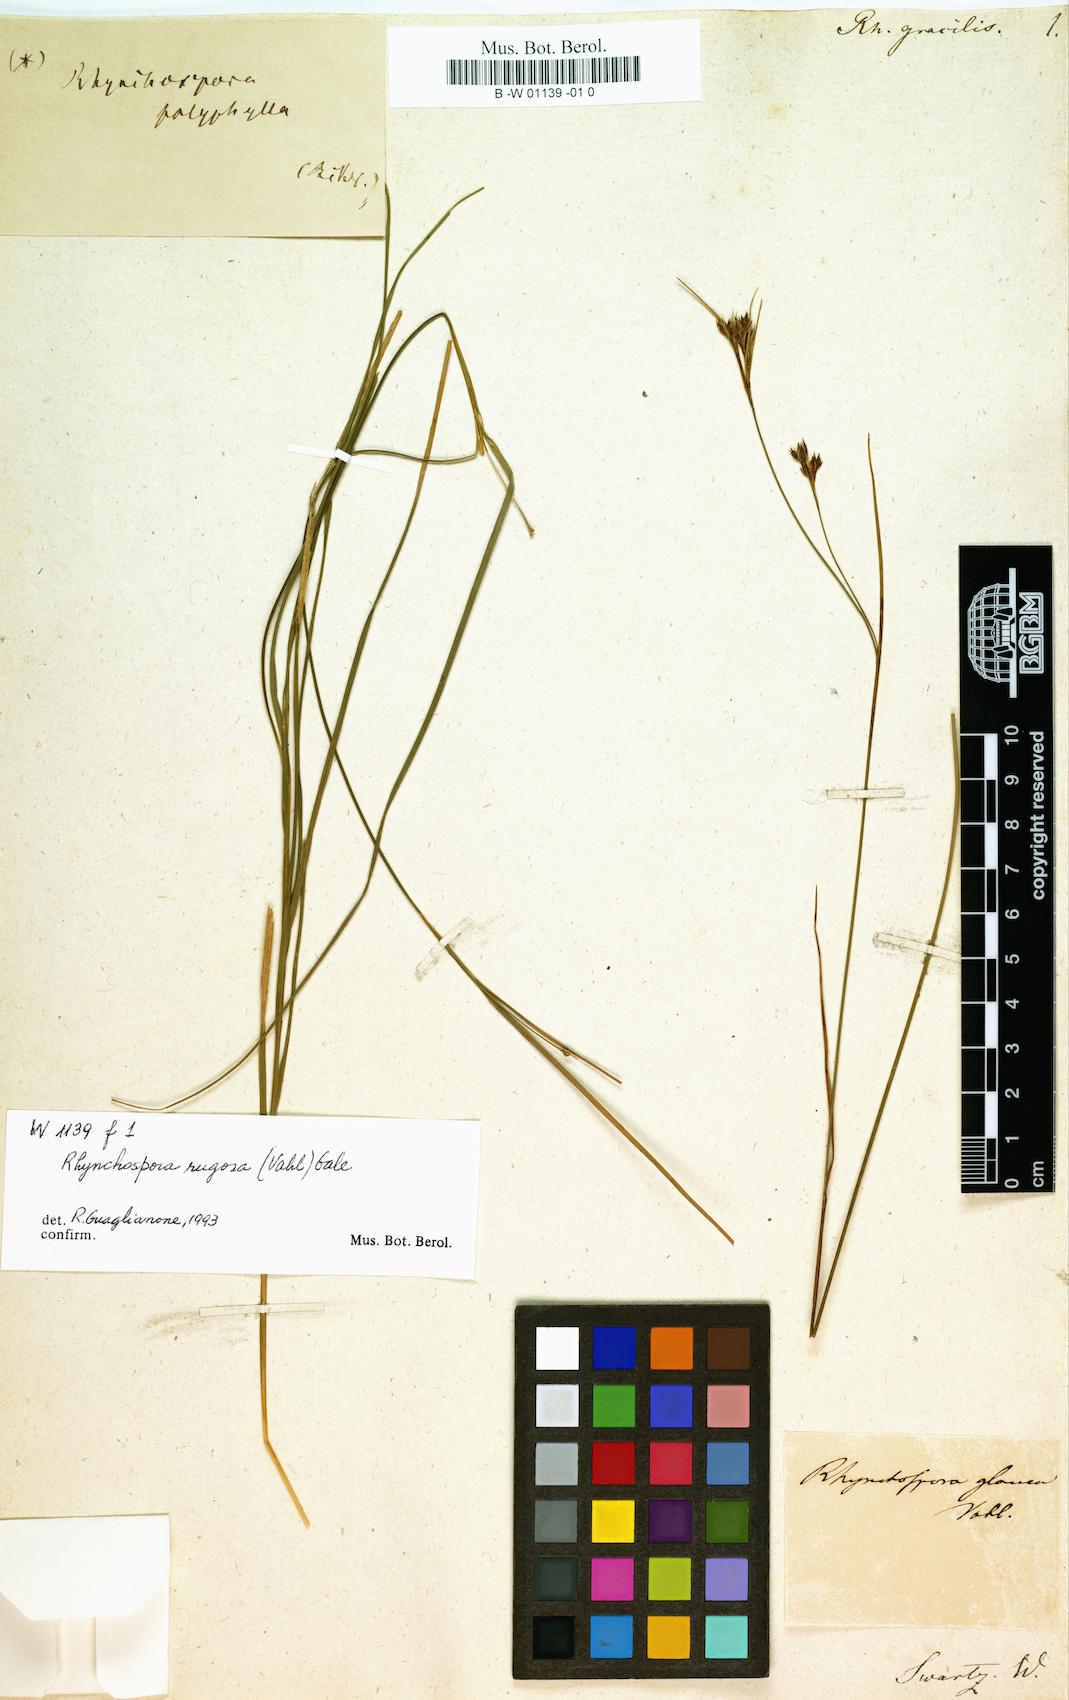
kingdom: Plantae
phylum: Tracheophyta
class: Liliopsida
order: Poales
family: Cyperaceae
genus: Rhynchospora
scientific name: Rhynchospora
